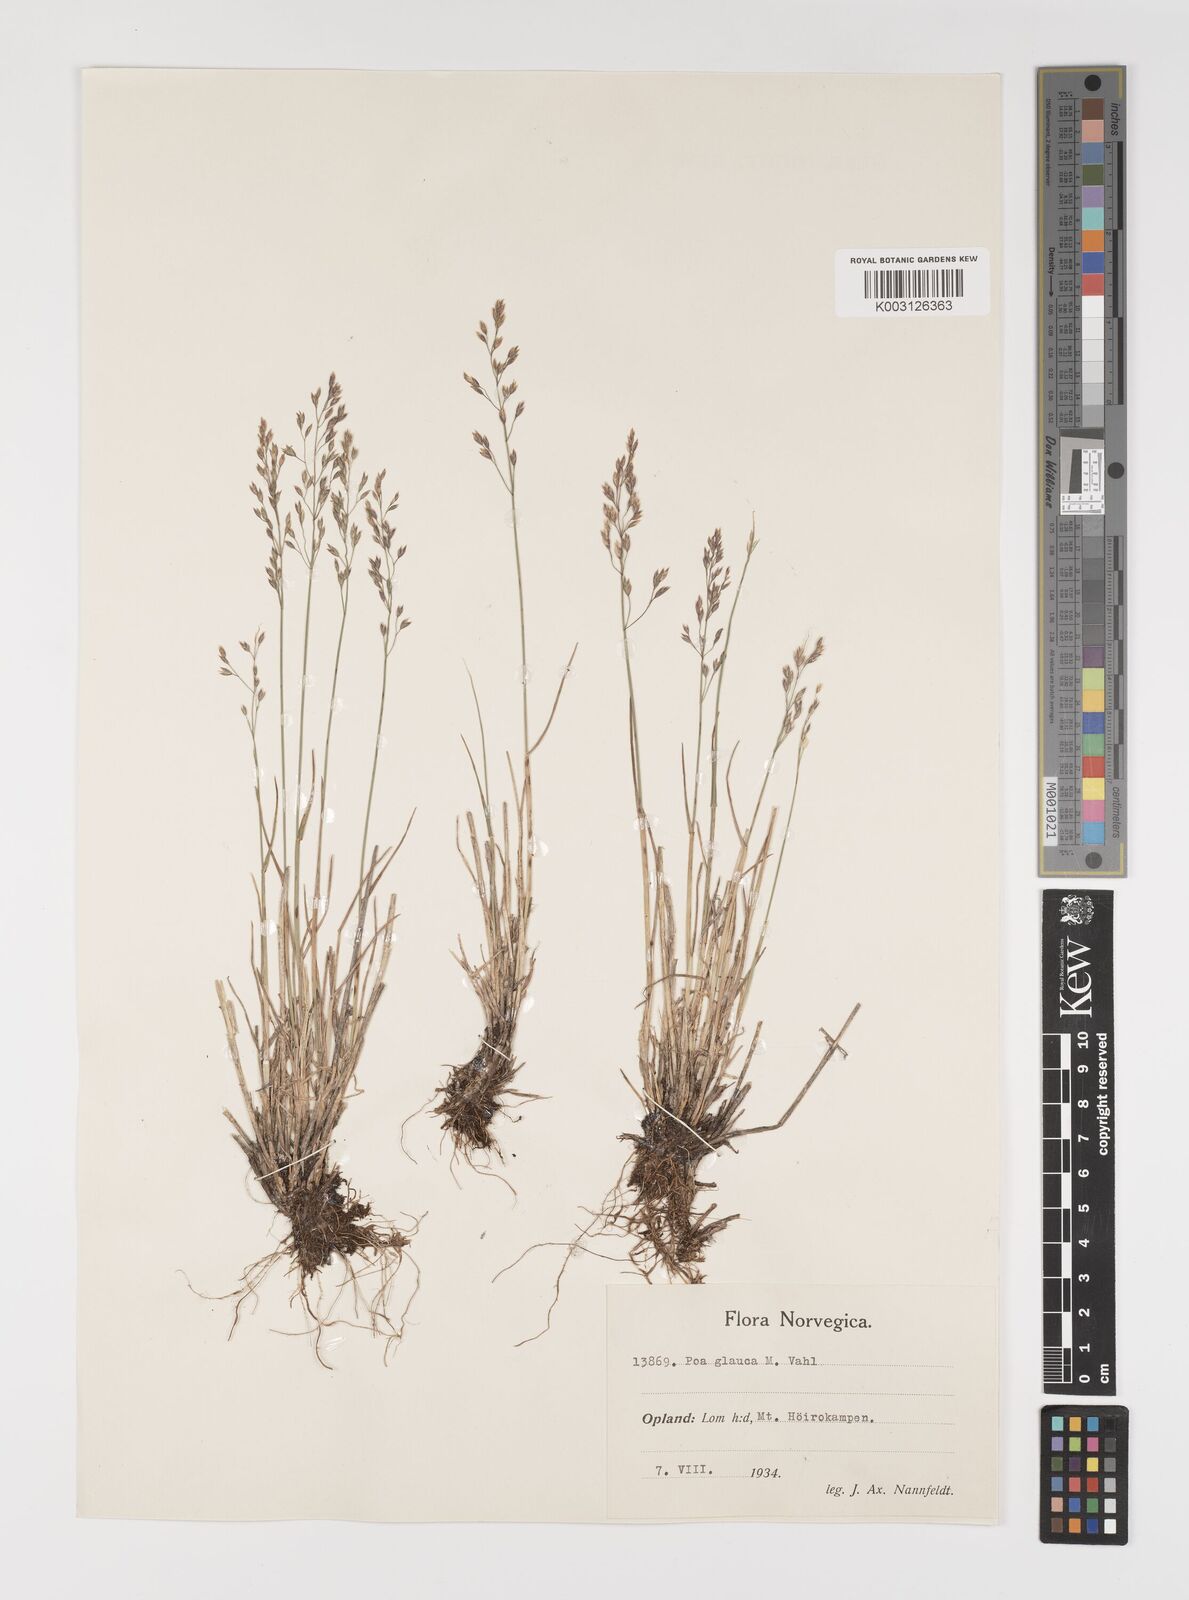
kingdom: Plantae
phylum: Tracheophyta
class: Liliopsida
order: Poales
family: Poaceae
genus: Poa
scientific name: Poa glauca
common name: Glaucous bluegrass
